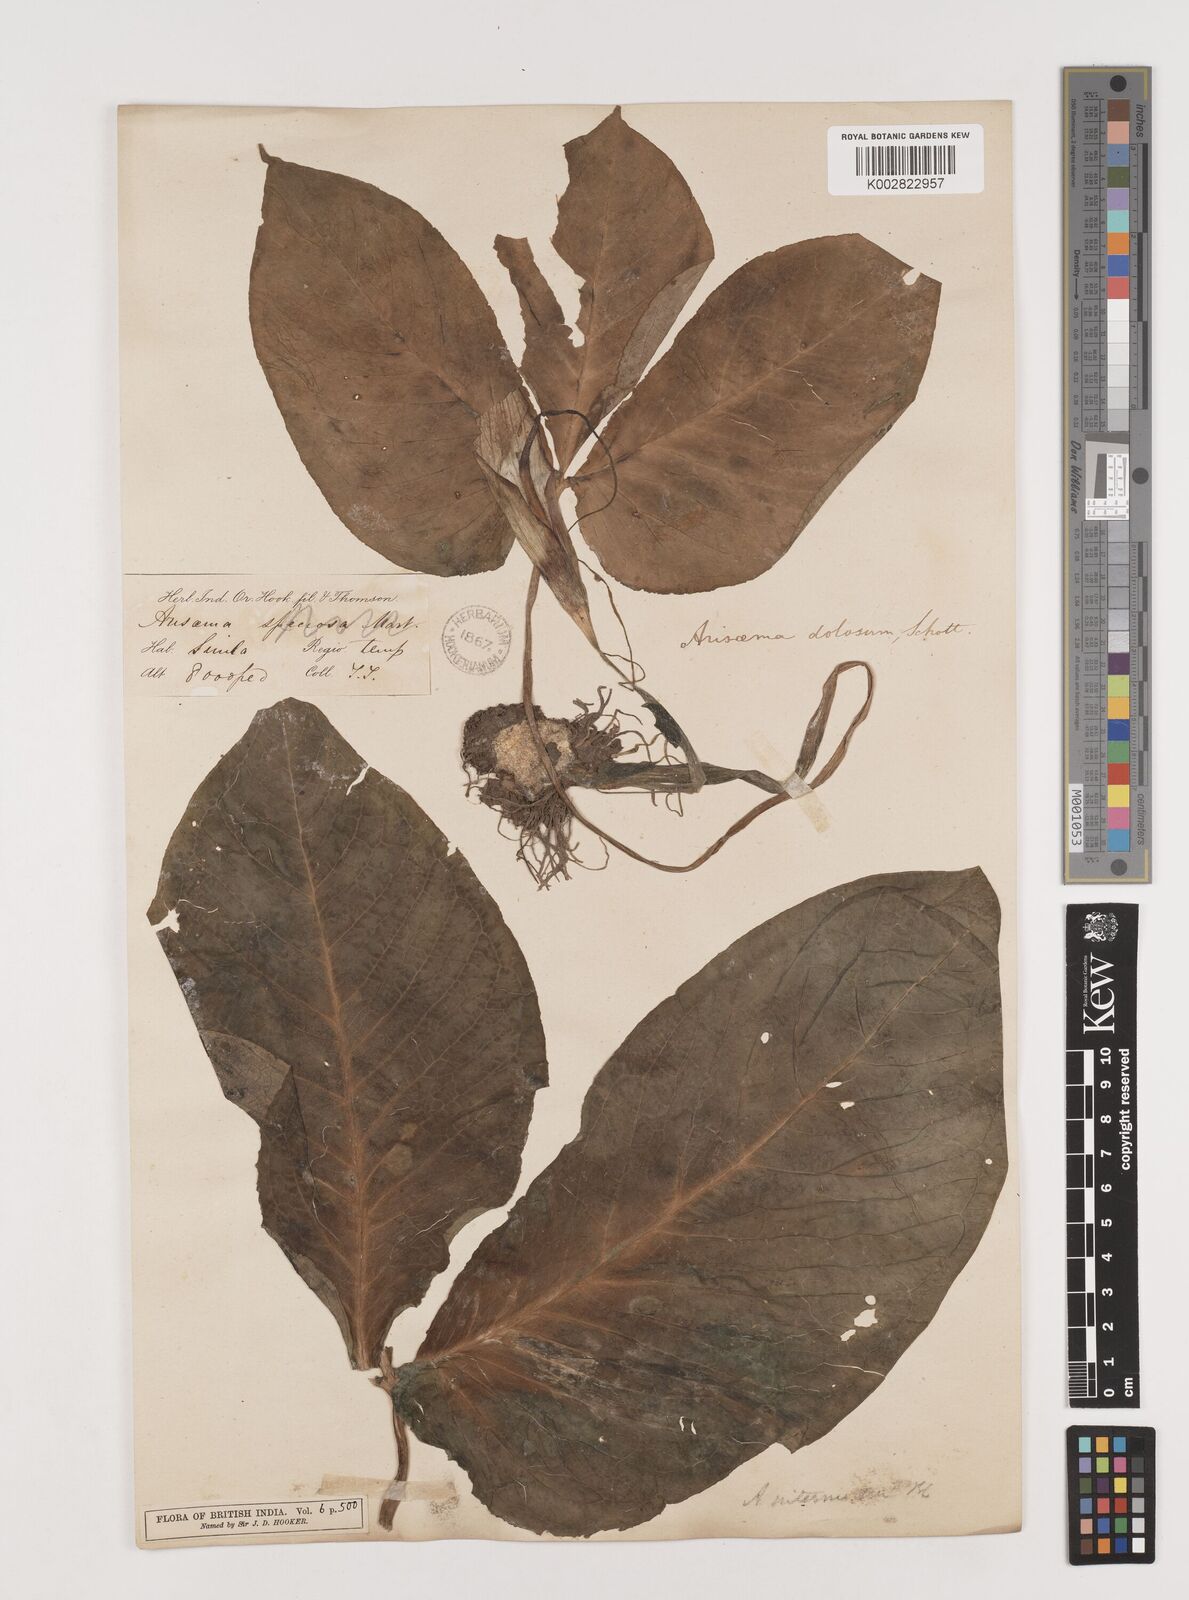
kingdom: Plantae
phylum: Tracheophyta
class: Liliopsida
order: Alismatales
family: Araceae
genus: Arisaema
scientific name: Arisaema intermedium
